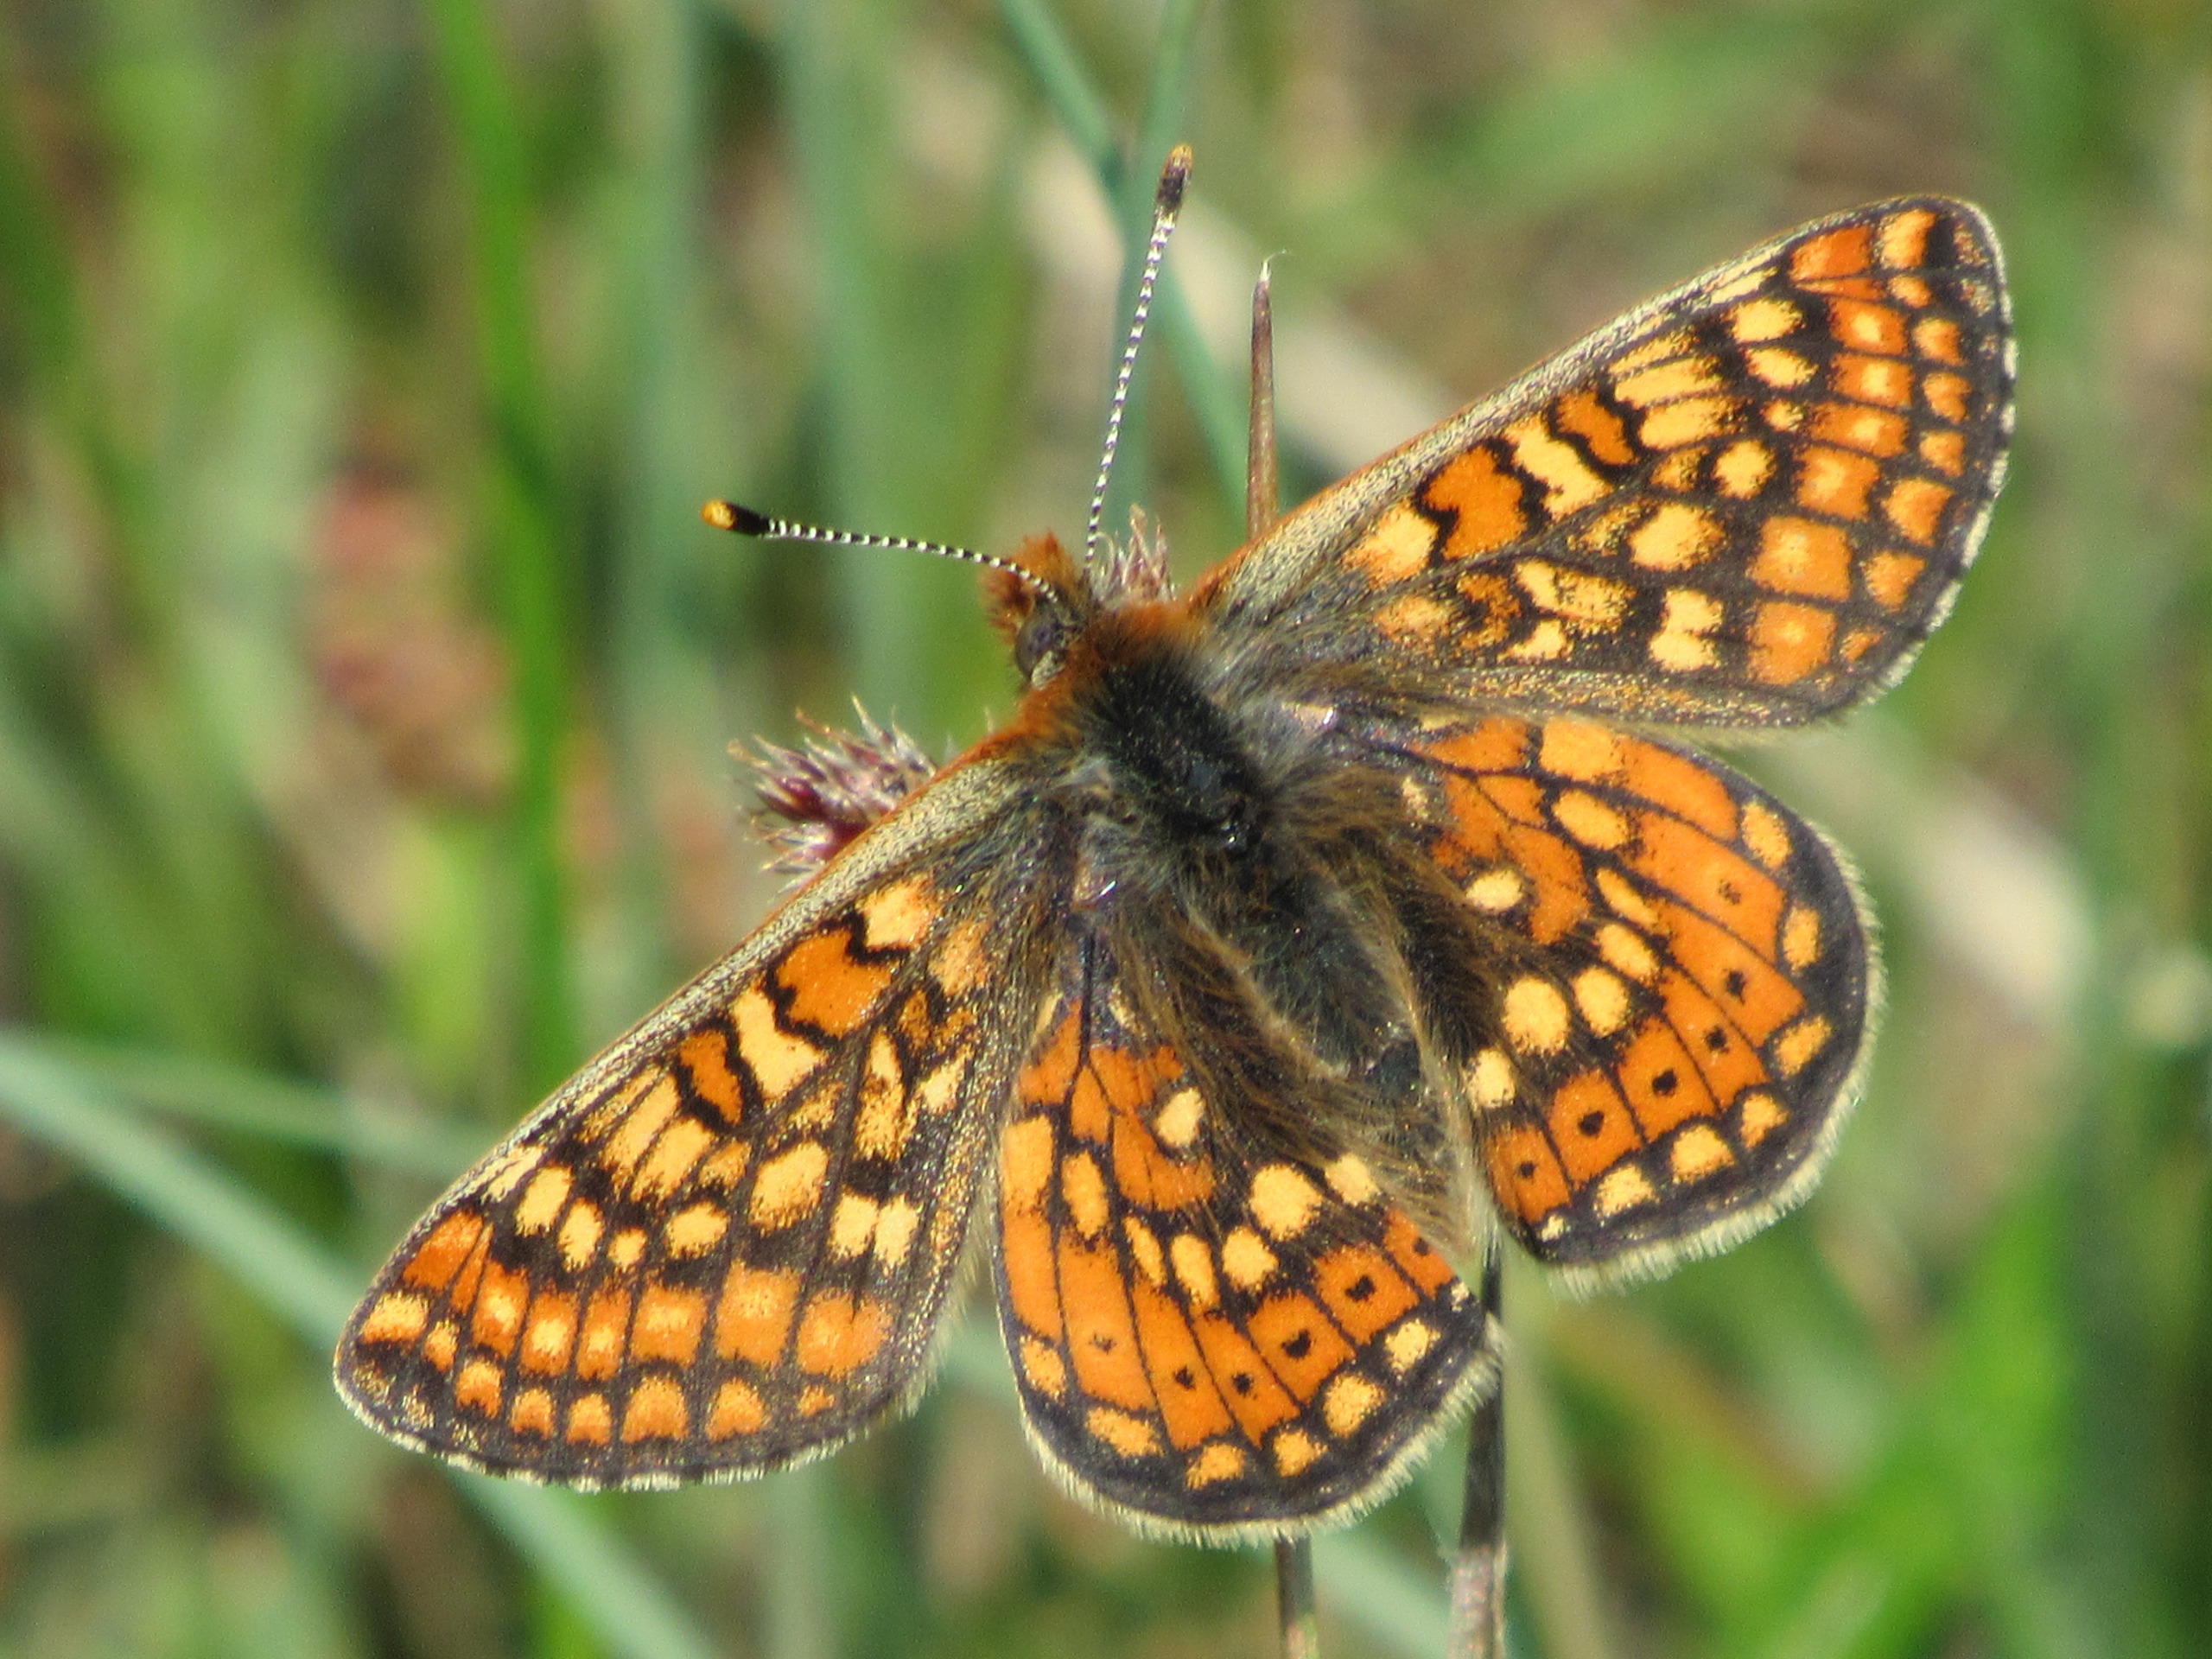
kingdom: Animalia
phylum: Arthropoda
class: Insecta
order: Lepidoptera
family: Nymphalidae
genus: Euphydryas
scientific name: Euphydryas aurinia
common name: Hedepletvinge
